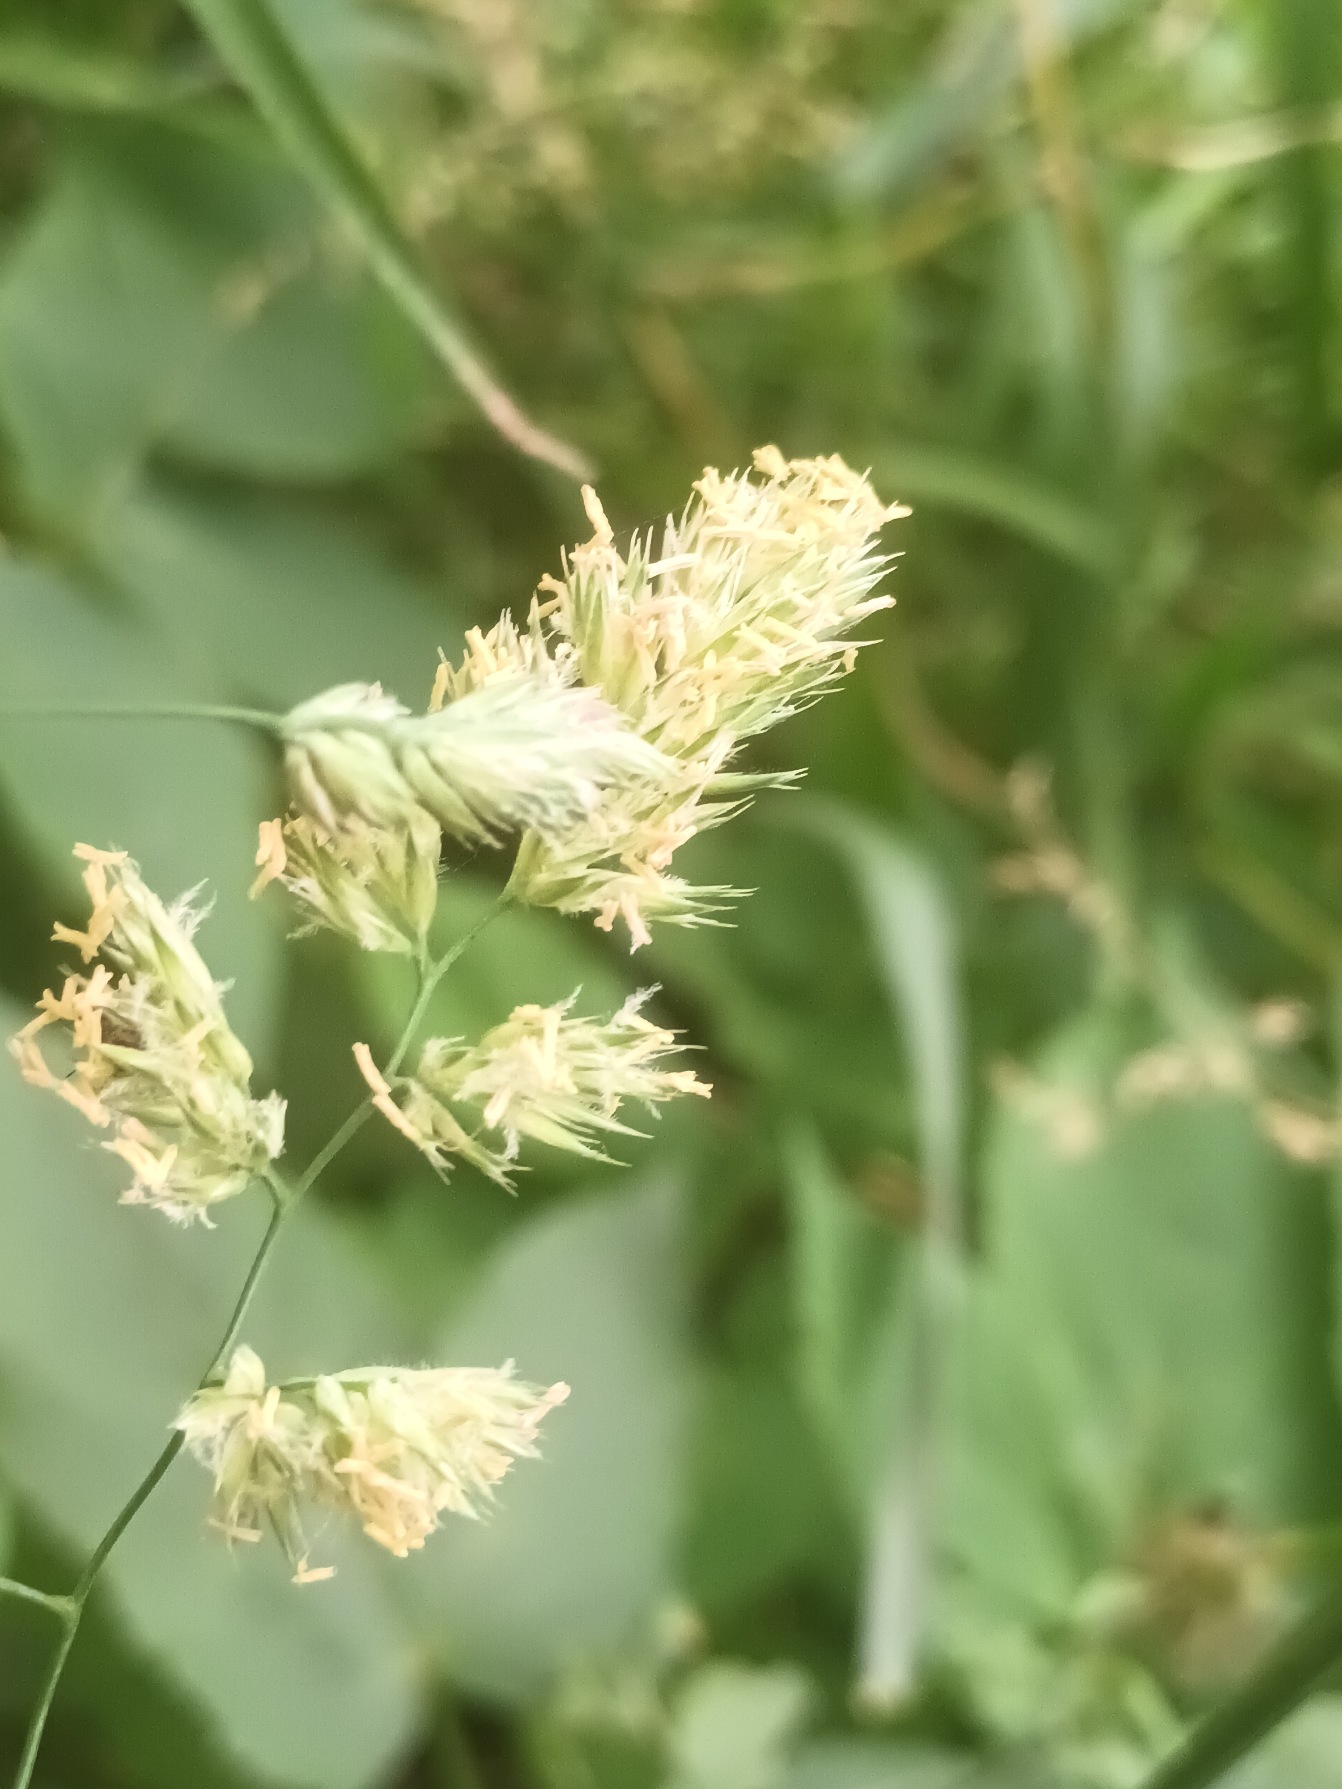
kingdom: Plantae
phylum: Tracheophyta
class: Liliopsida
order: Poales
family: Poaceae
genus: Dactylis
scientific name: Dactylis glomerata
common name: Almindelig hundegræs
